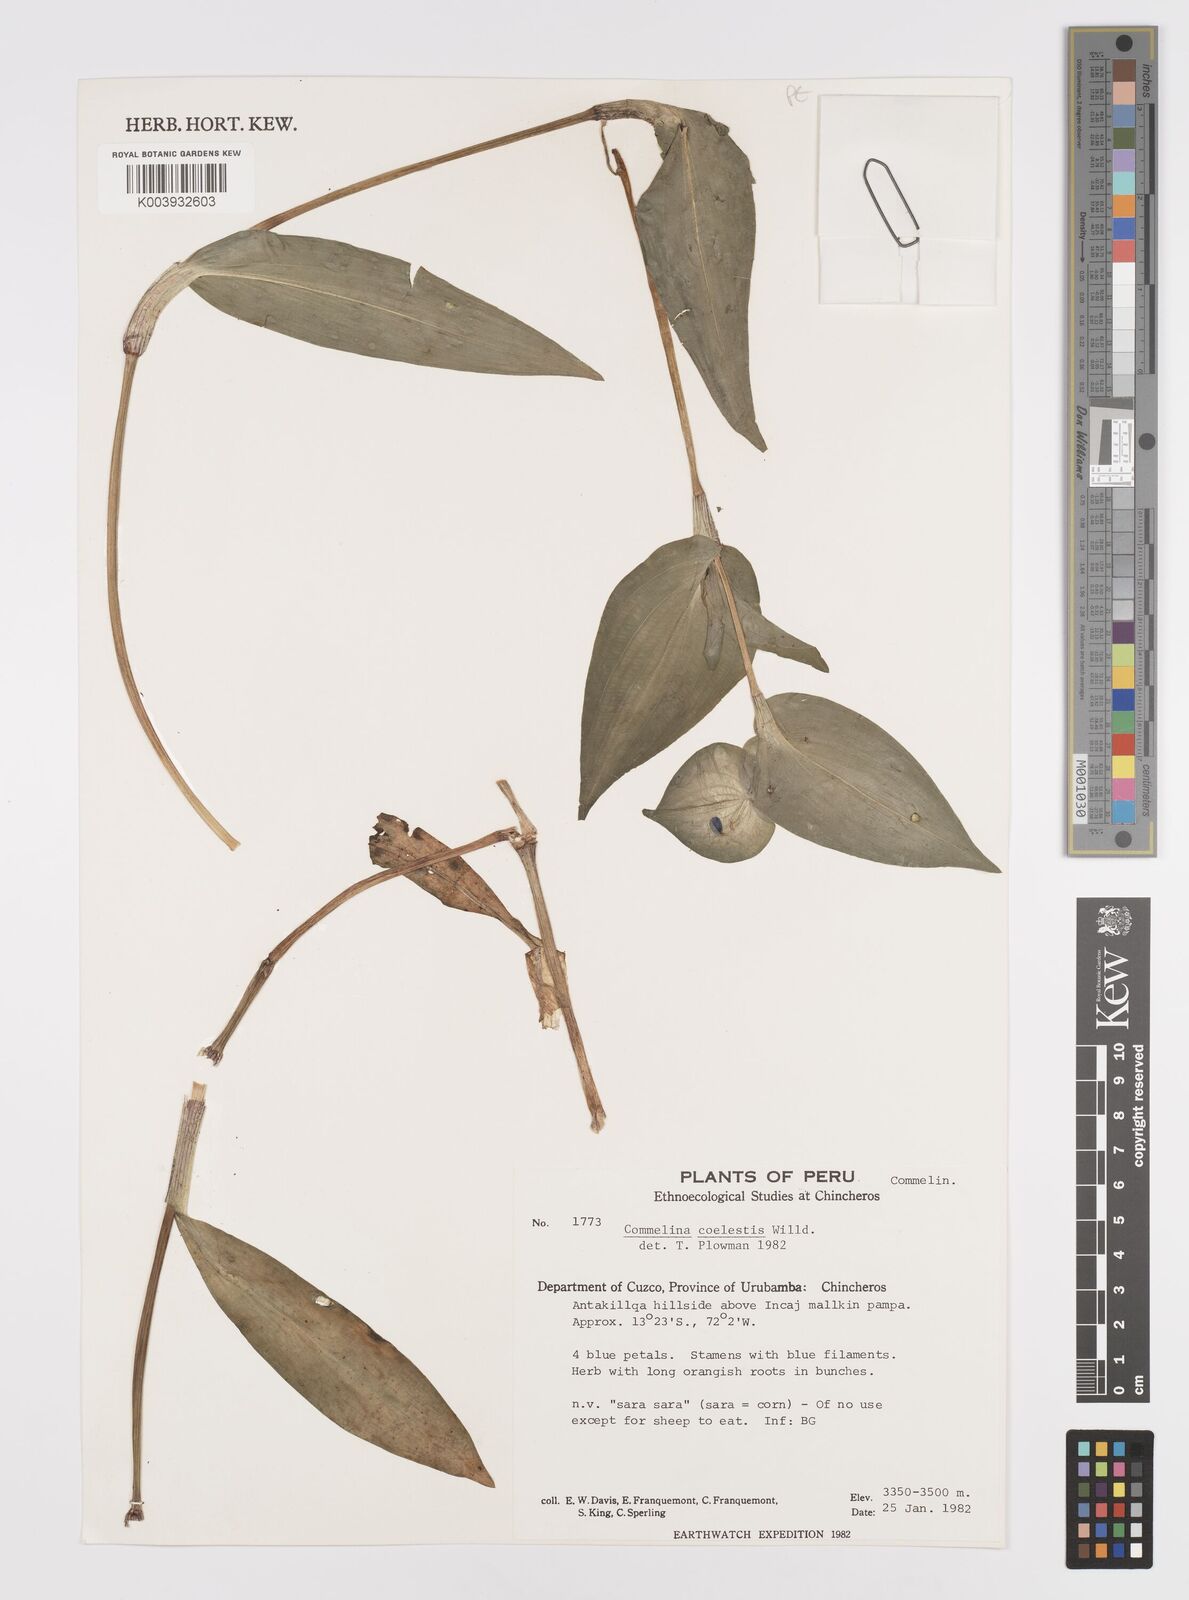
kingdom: Plantae
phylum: Tracheophyta
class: Liliopsida
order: Commelinales
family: Commelinaceae
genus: Commelina
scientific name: Commelina tuberosa
